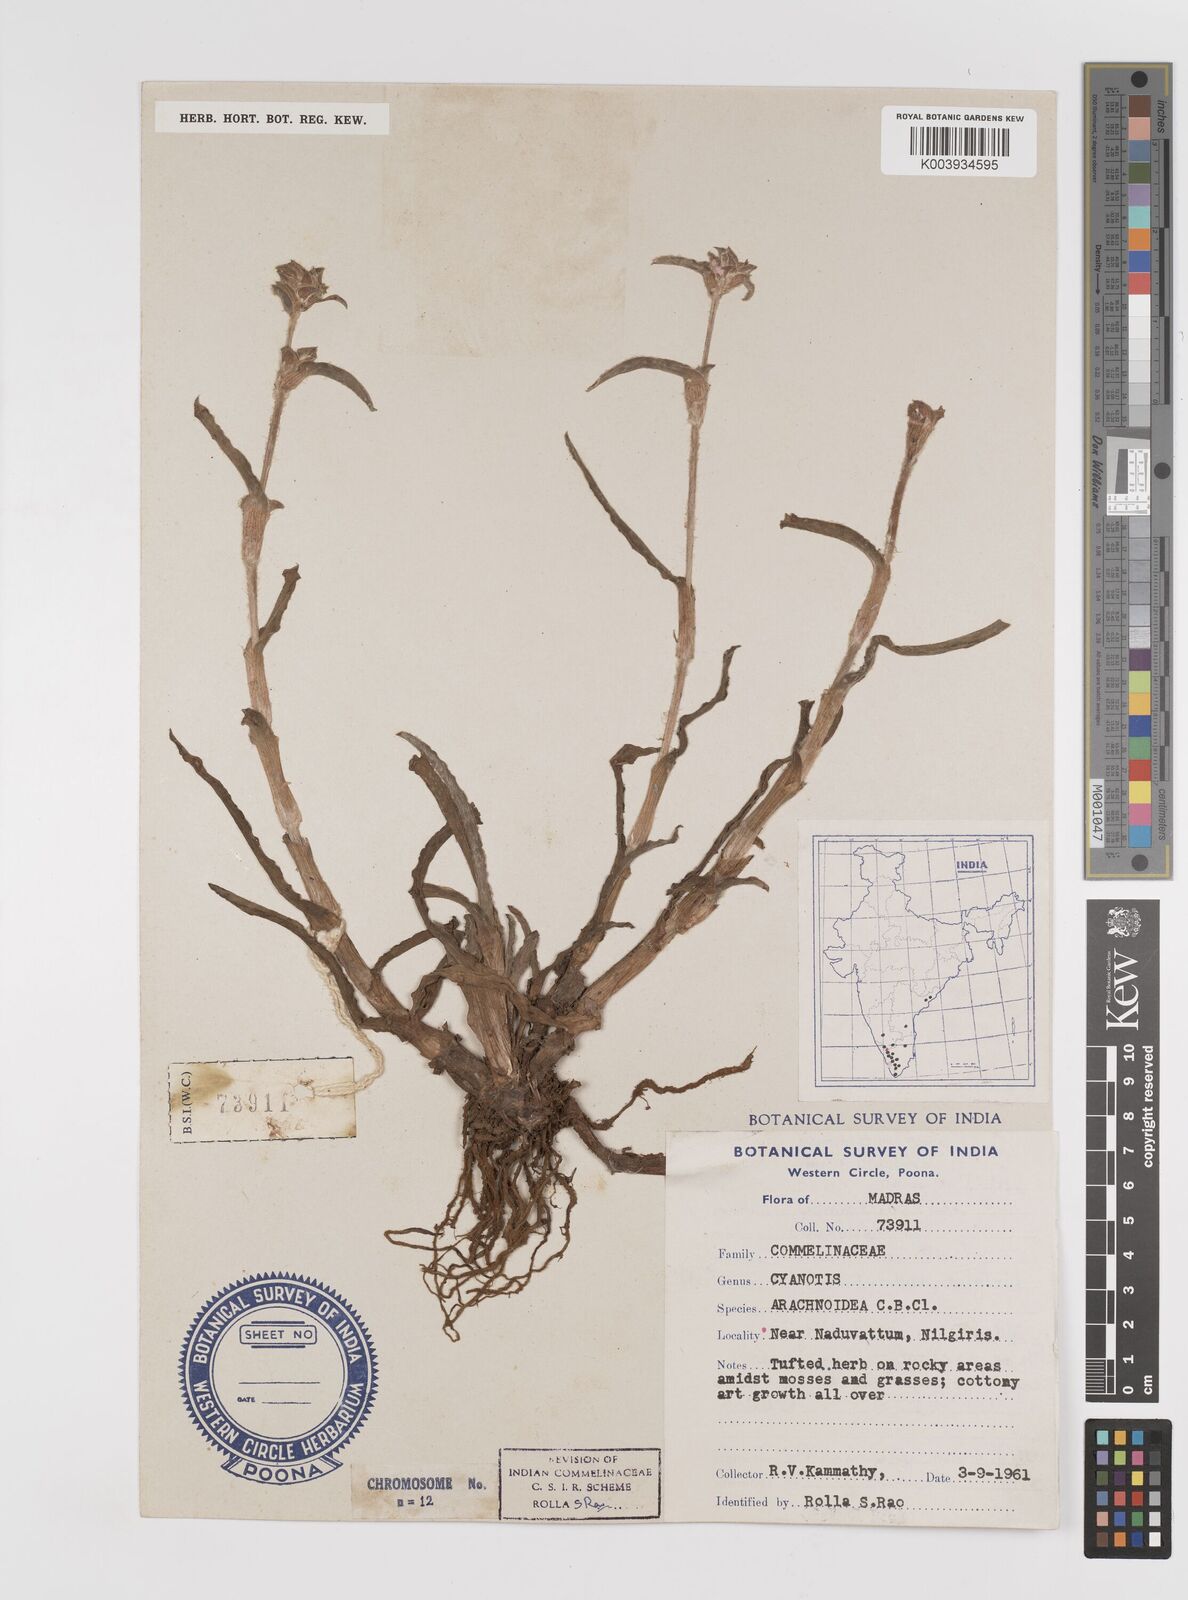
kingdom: Plantae
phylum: Tracheophyta
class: Liliopsida
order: Commelinales
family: Commelinaceae
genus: Cyanotis
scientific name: Cyanotis arachnoidea
